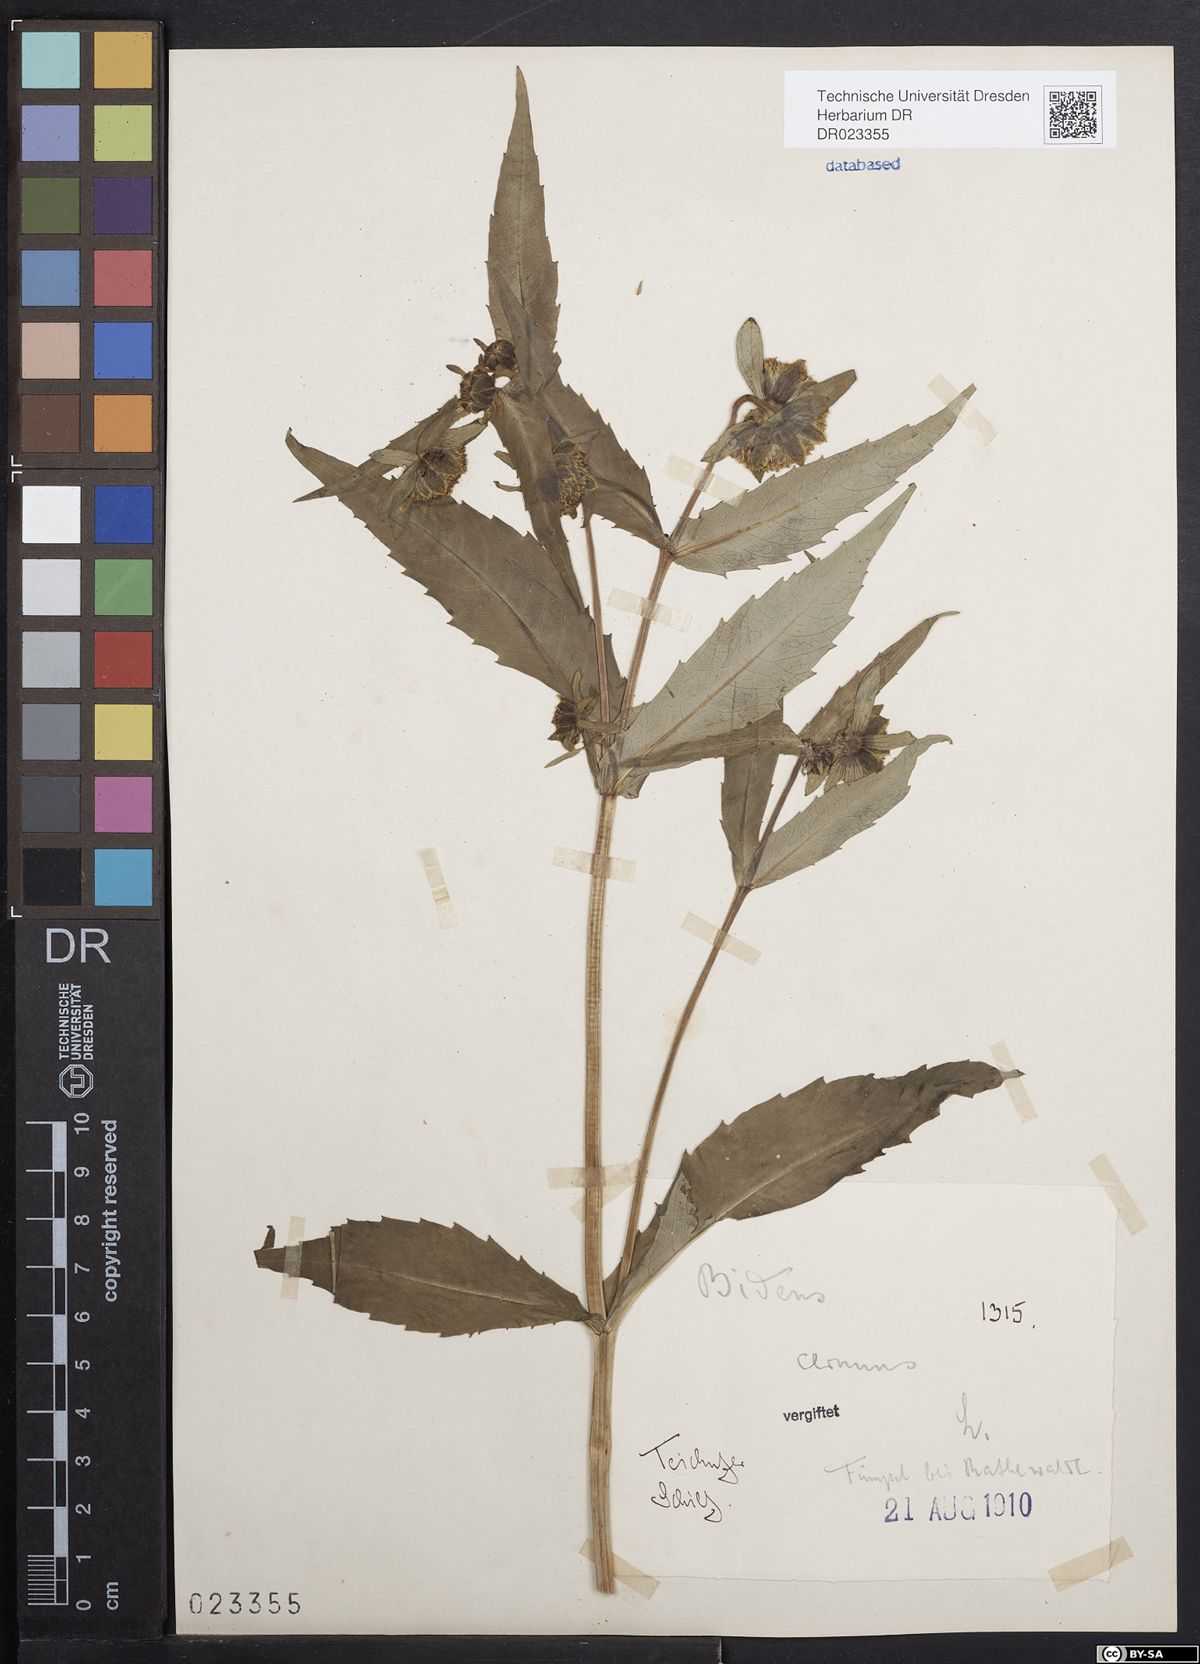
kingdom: Plantae
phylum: Tracheophyta
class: Magnoliopsida
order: Asterales
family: Asteraceae
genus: Bidens
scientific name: Bidens cernua
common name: Nodding bur-marigold
